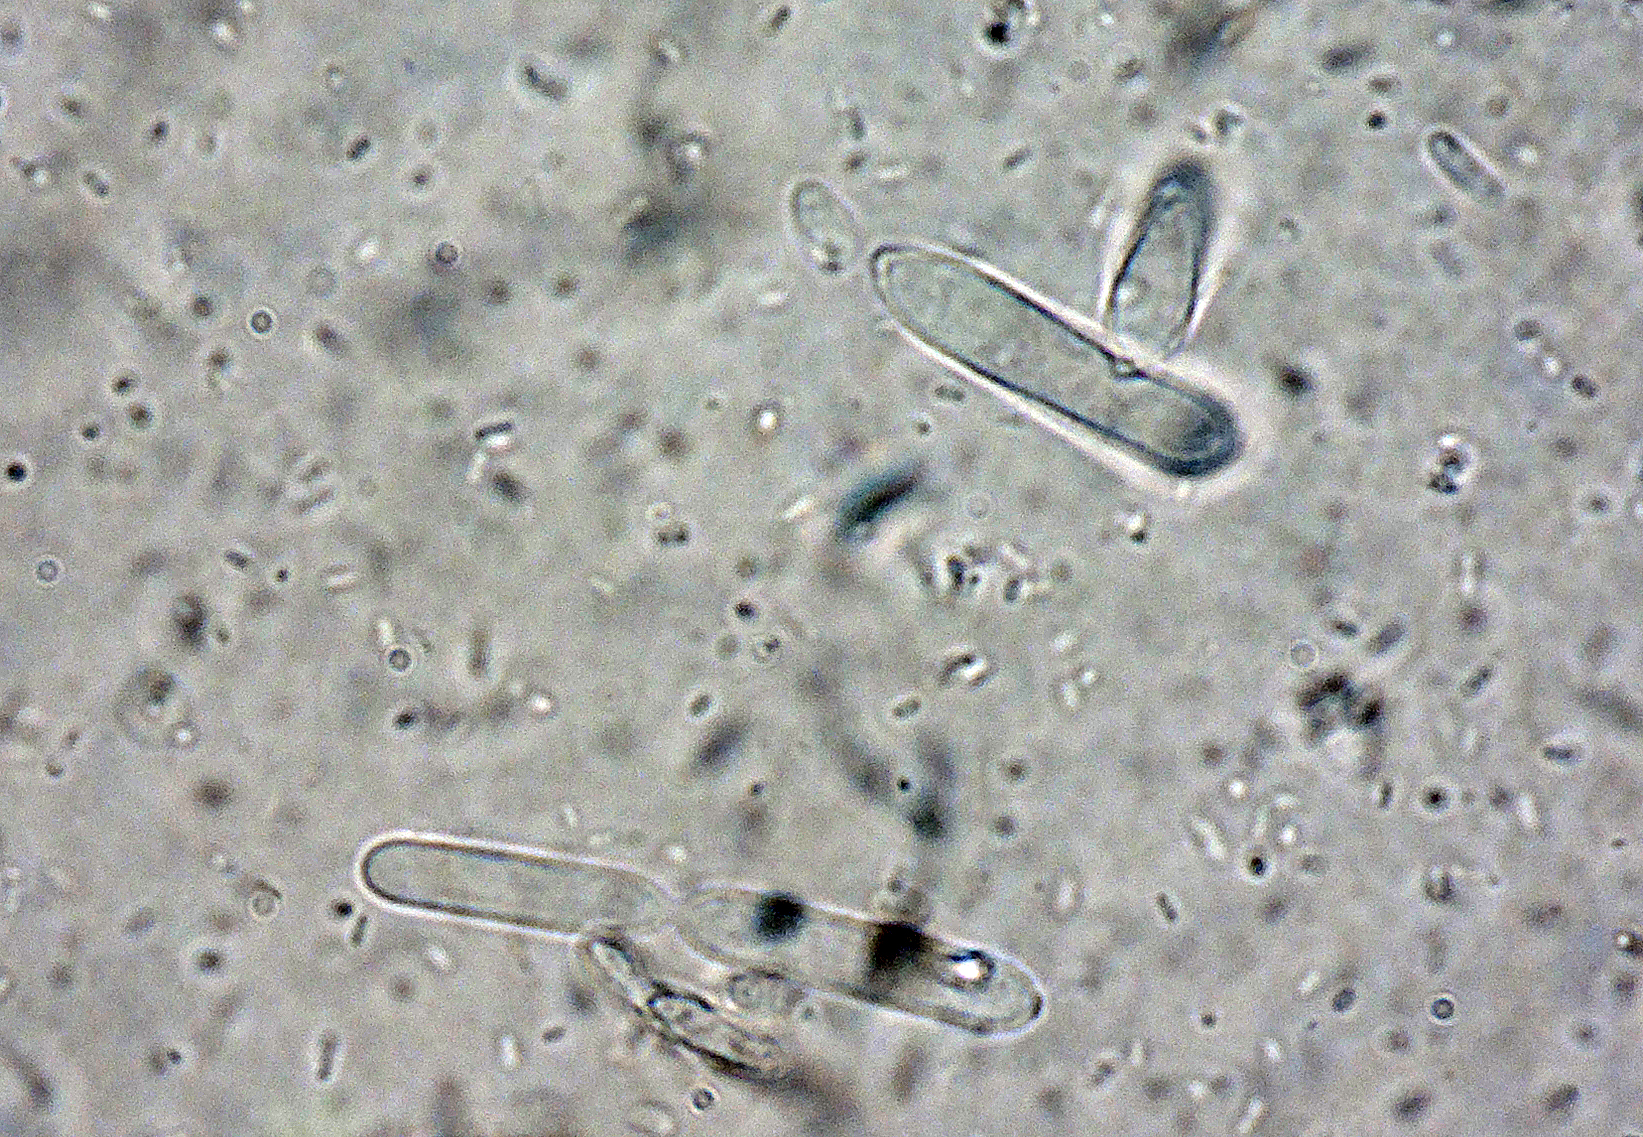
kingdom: Fungi
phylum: Ascomycota
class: Dothideomycetes
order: Mycosphaerellales
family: Mycosphaerellaceae
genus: Ramularia
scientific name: Ramularia cardamines
